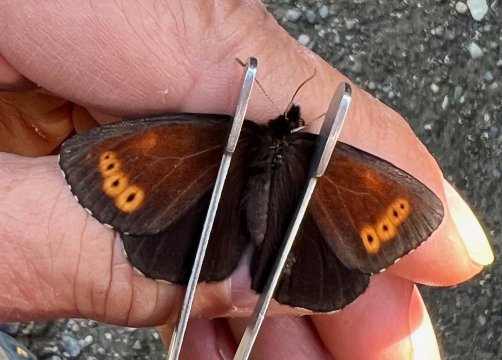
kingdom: Animalia
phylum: Arthropoda
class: Insecta
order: Lepidoptera
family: Nymphalidae
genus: Erebia
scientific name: Erebia disa
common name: Taiga Alpine
